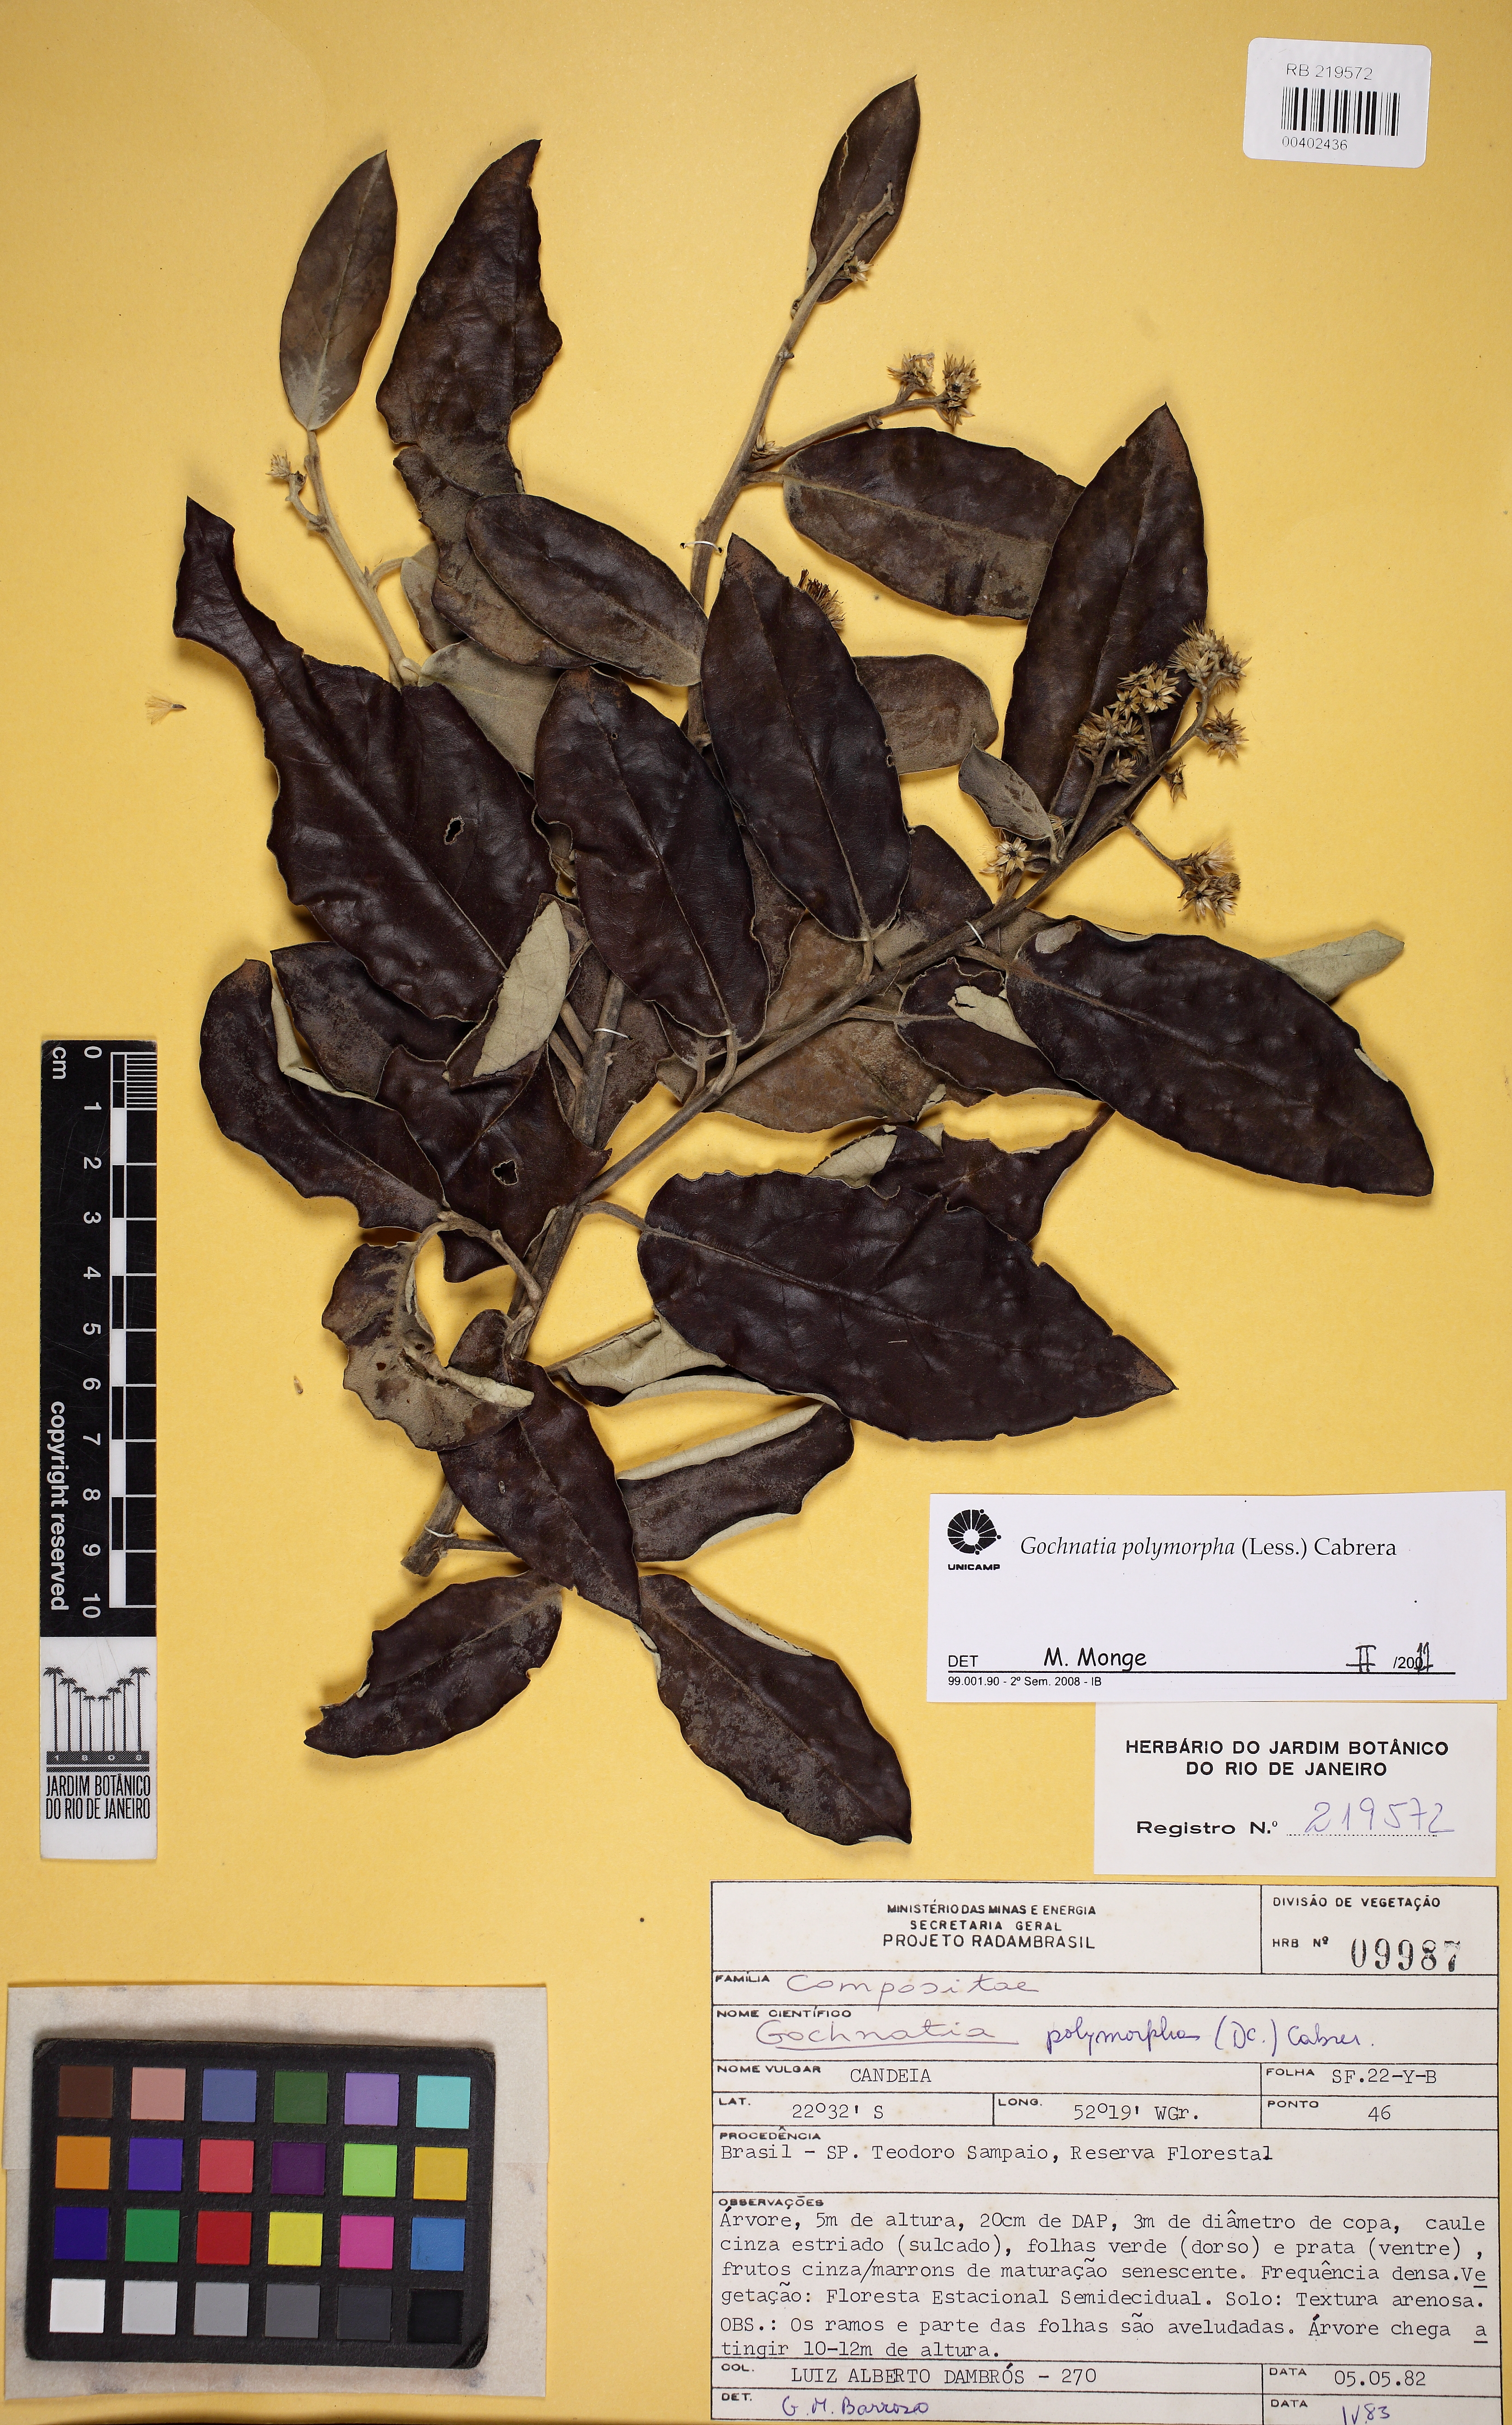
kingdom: Plantae
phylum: Tracheophyta
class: Magnoliopsida
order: Asterales
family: Asteraceae
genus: Moquiniastrum
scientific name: Moquiniastrum polymorphum
